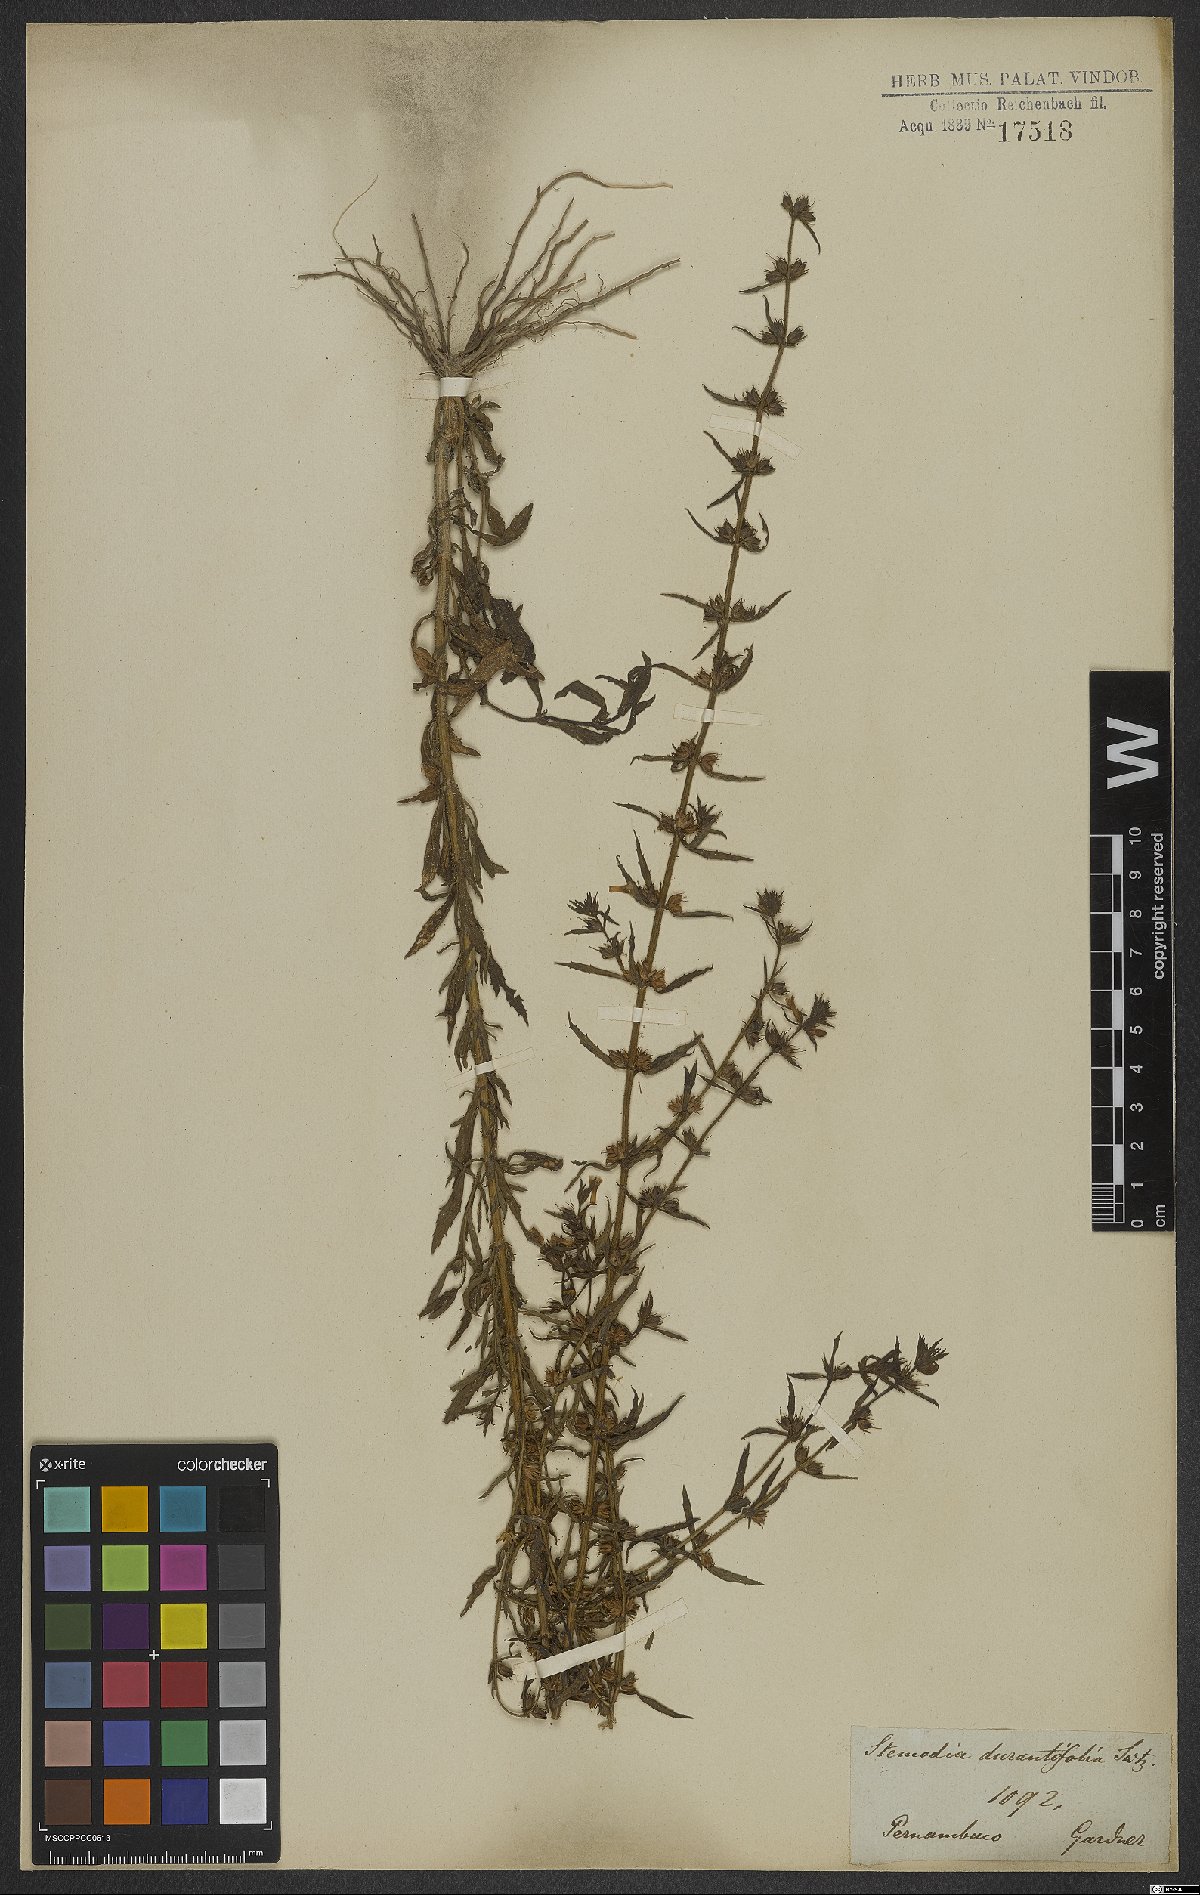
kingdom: Plantae
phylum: Tracheophyta
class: Magnoliopsida
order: Lamiales
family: Plantaginaceae
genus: Stemodia
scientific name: Stemodia durantifolia
